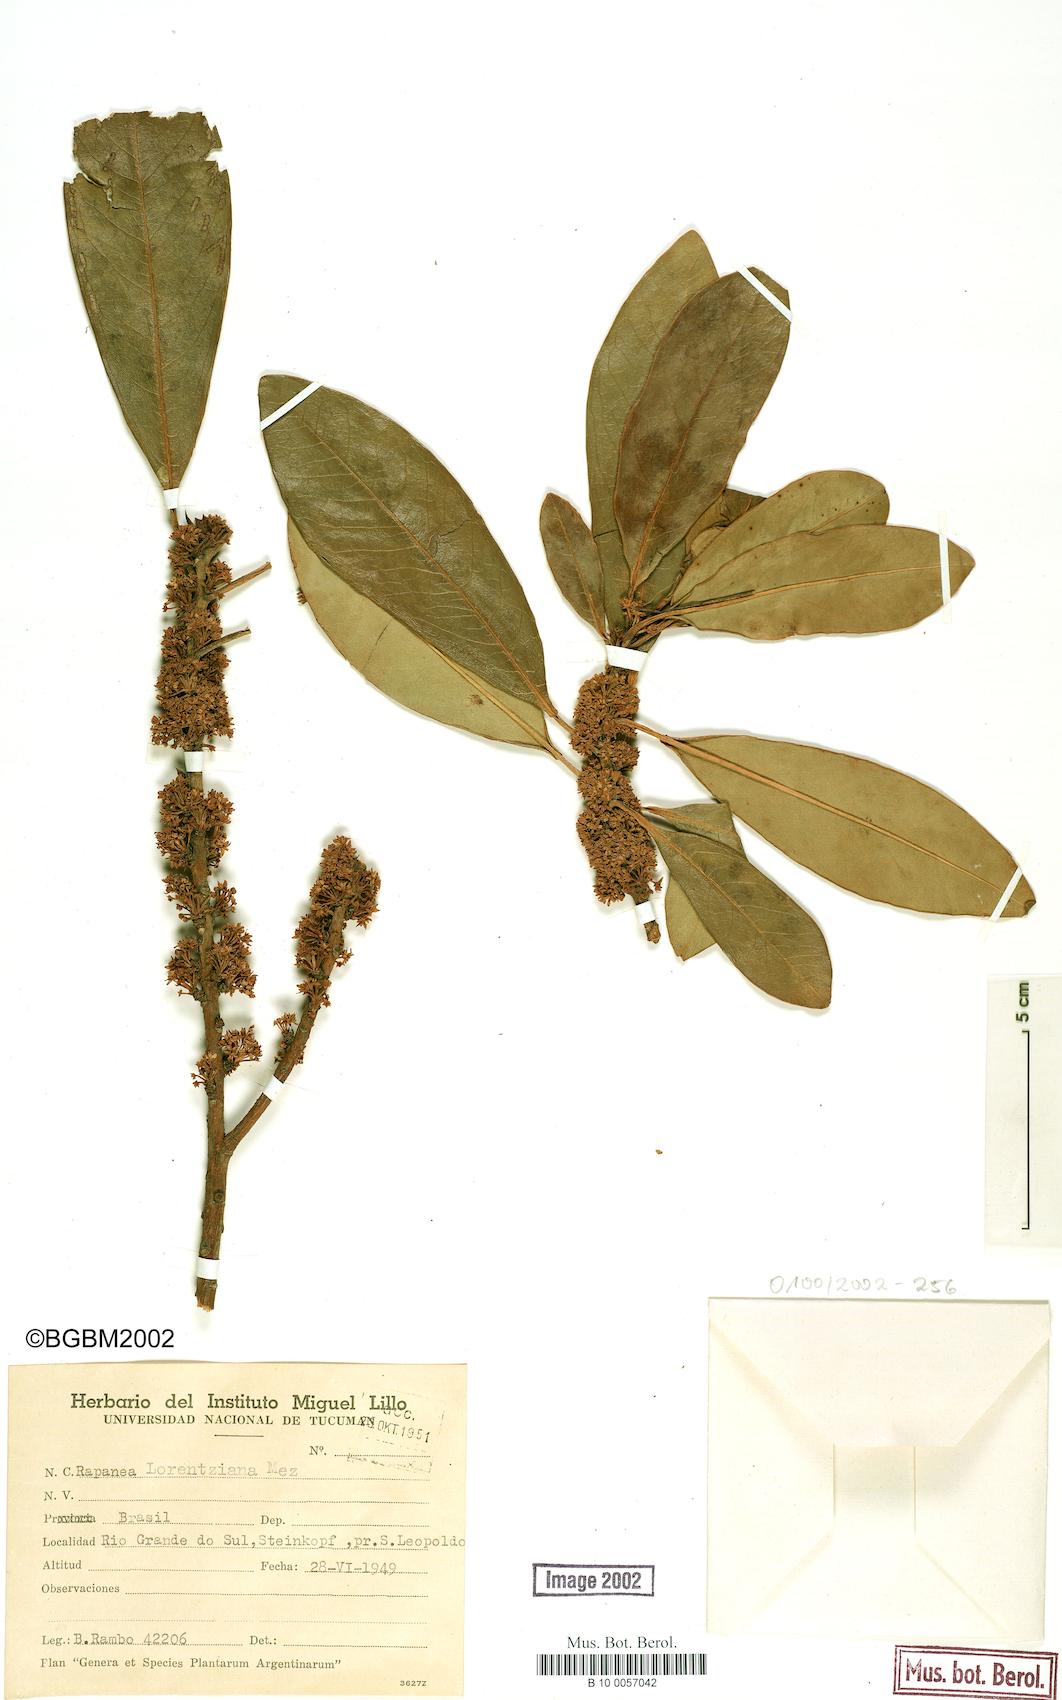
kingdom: Plantae
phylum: Tracheophyta
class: Magnoliopsida
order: Ericales
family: Primulaceae
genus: Myrsine
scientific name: Myrsine lorentziana
